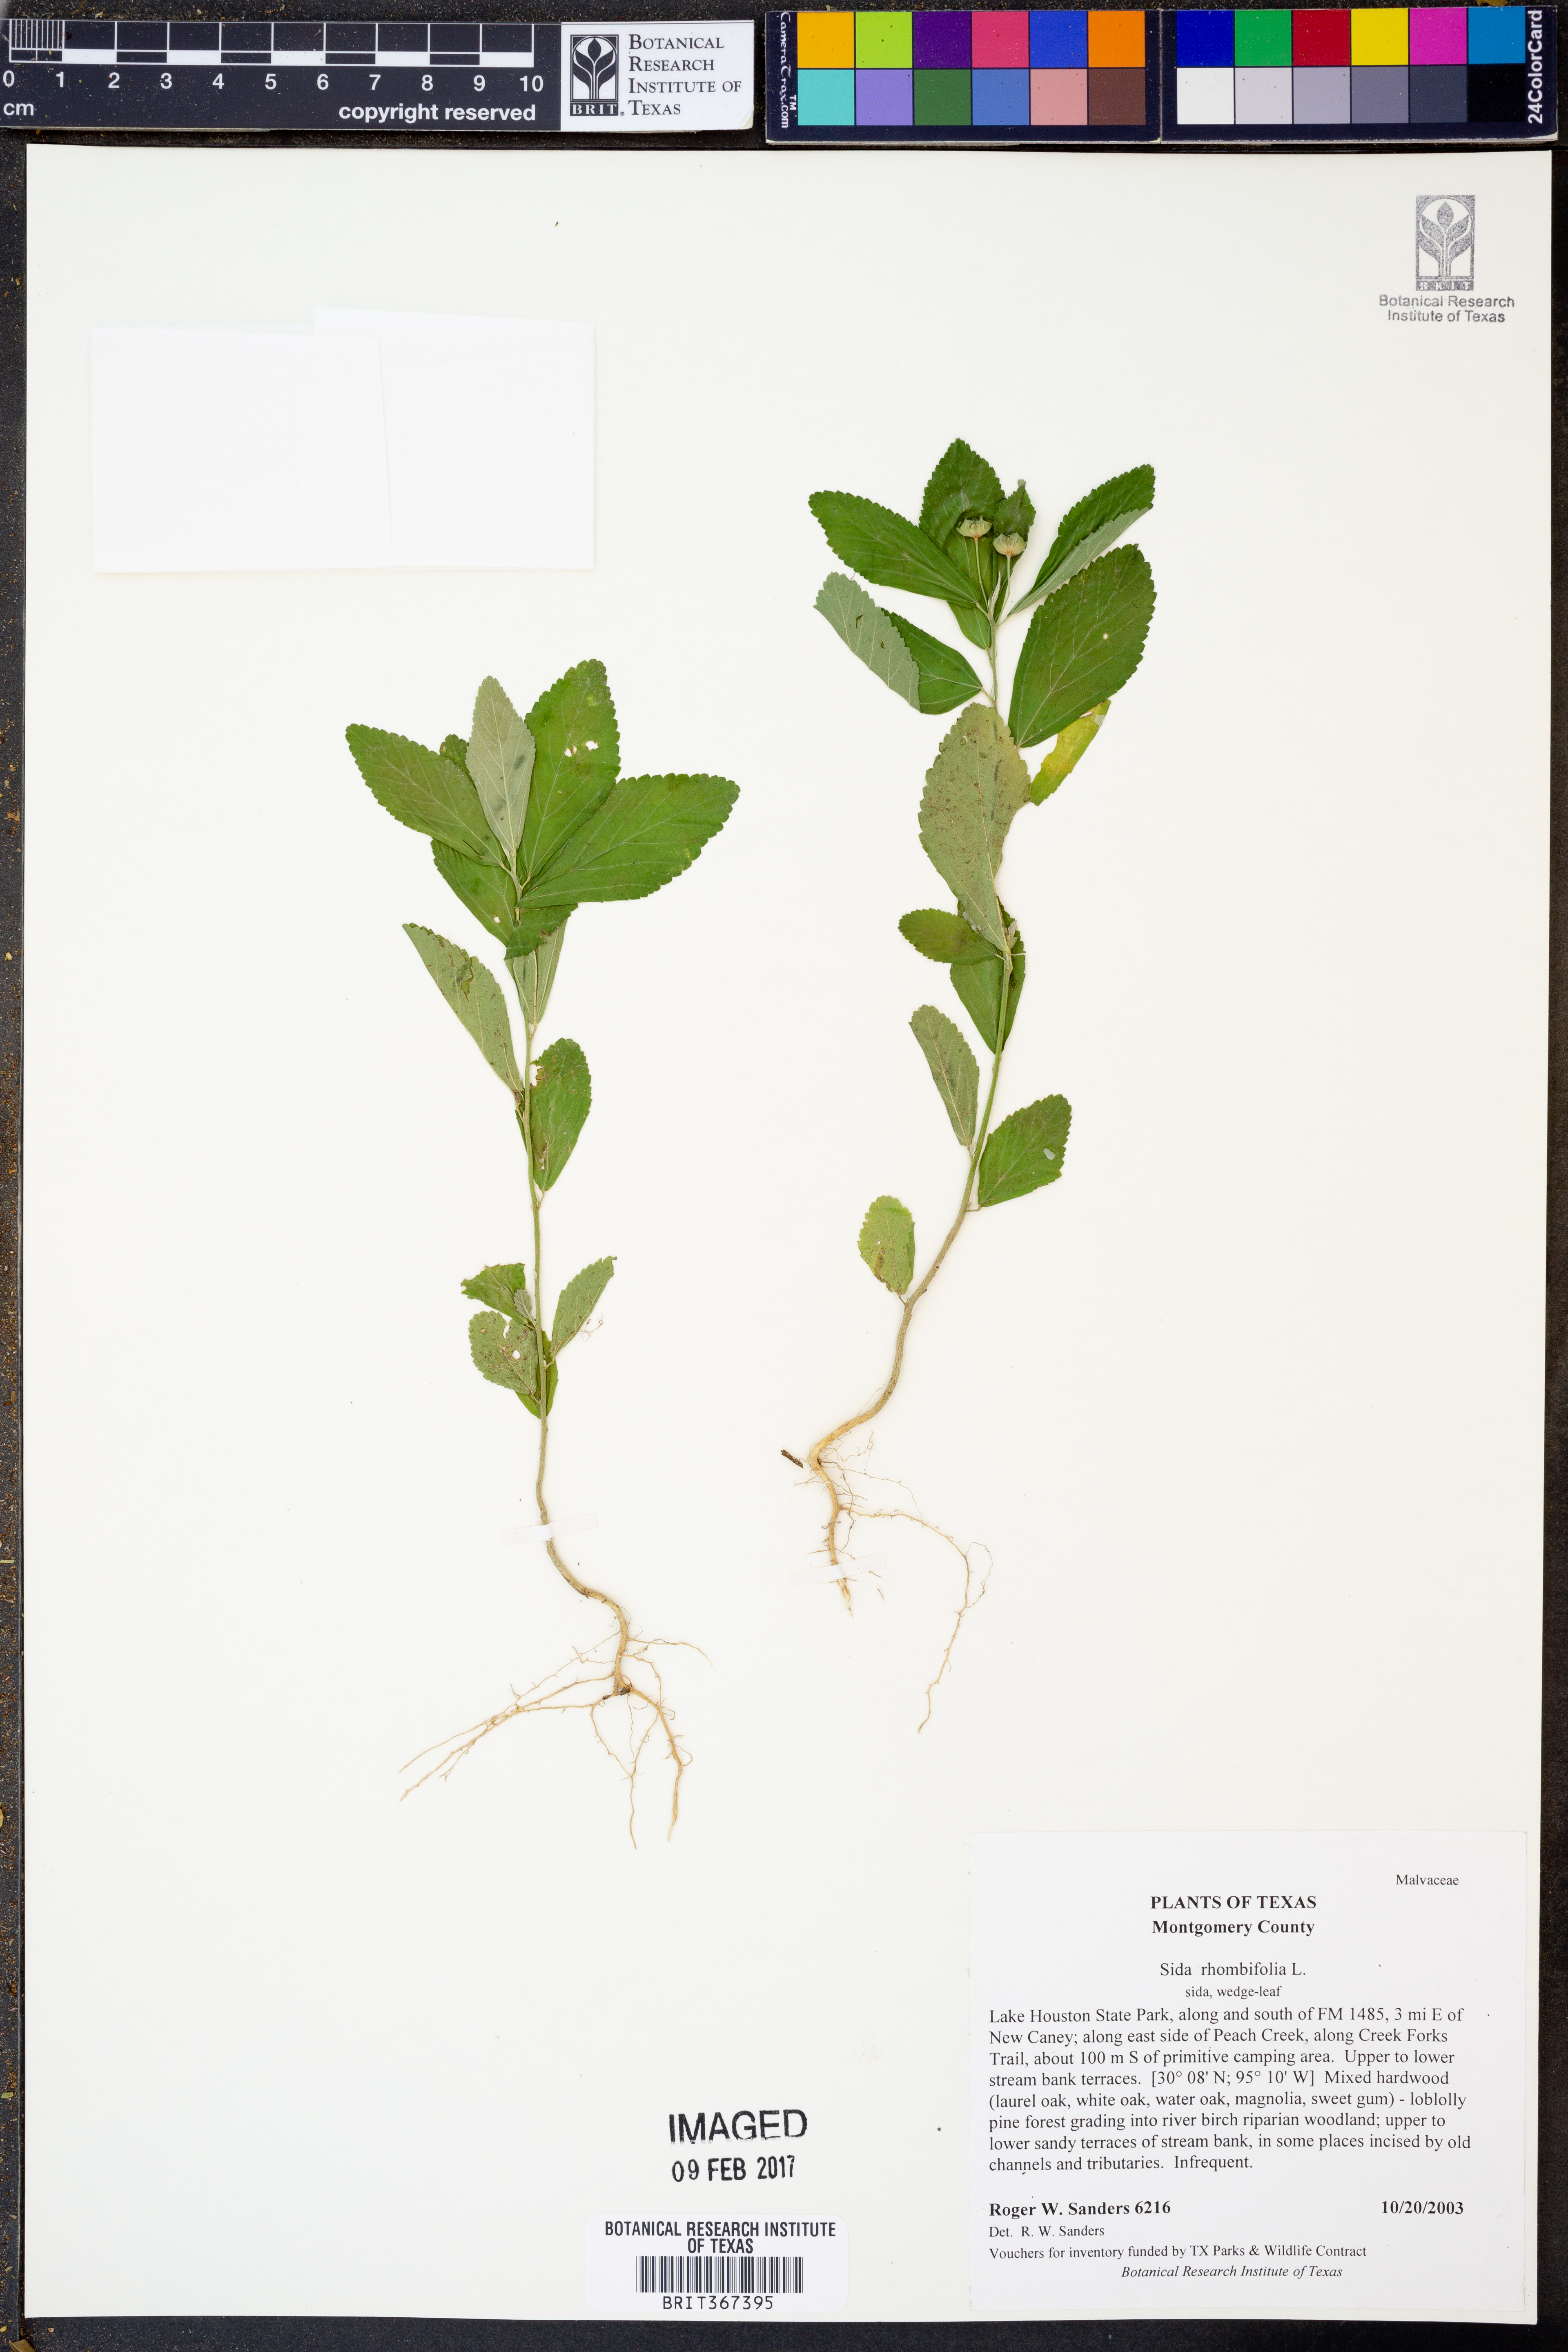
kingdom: Plantae
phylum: Tracheophyta
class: Magnoliopsida
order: Malvales
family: Malvaceae
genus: Sida
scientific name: Sida rhombifolia
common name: Queensland-hemp
